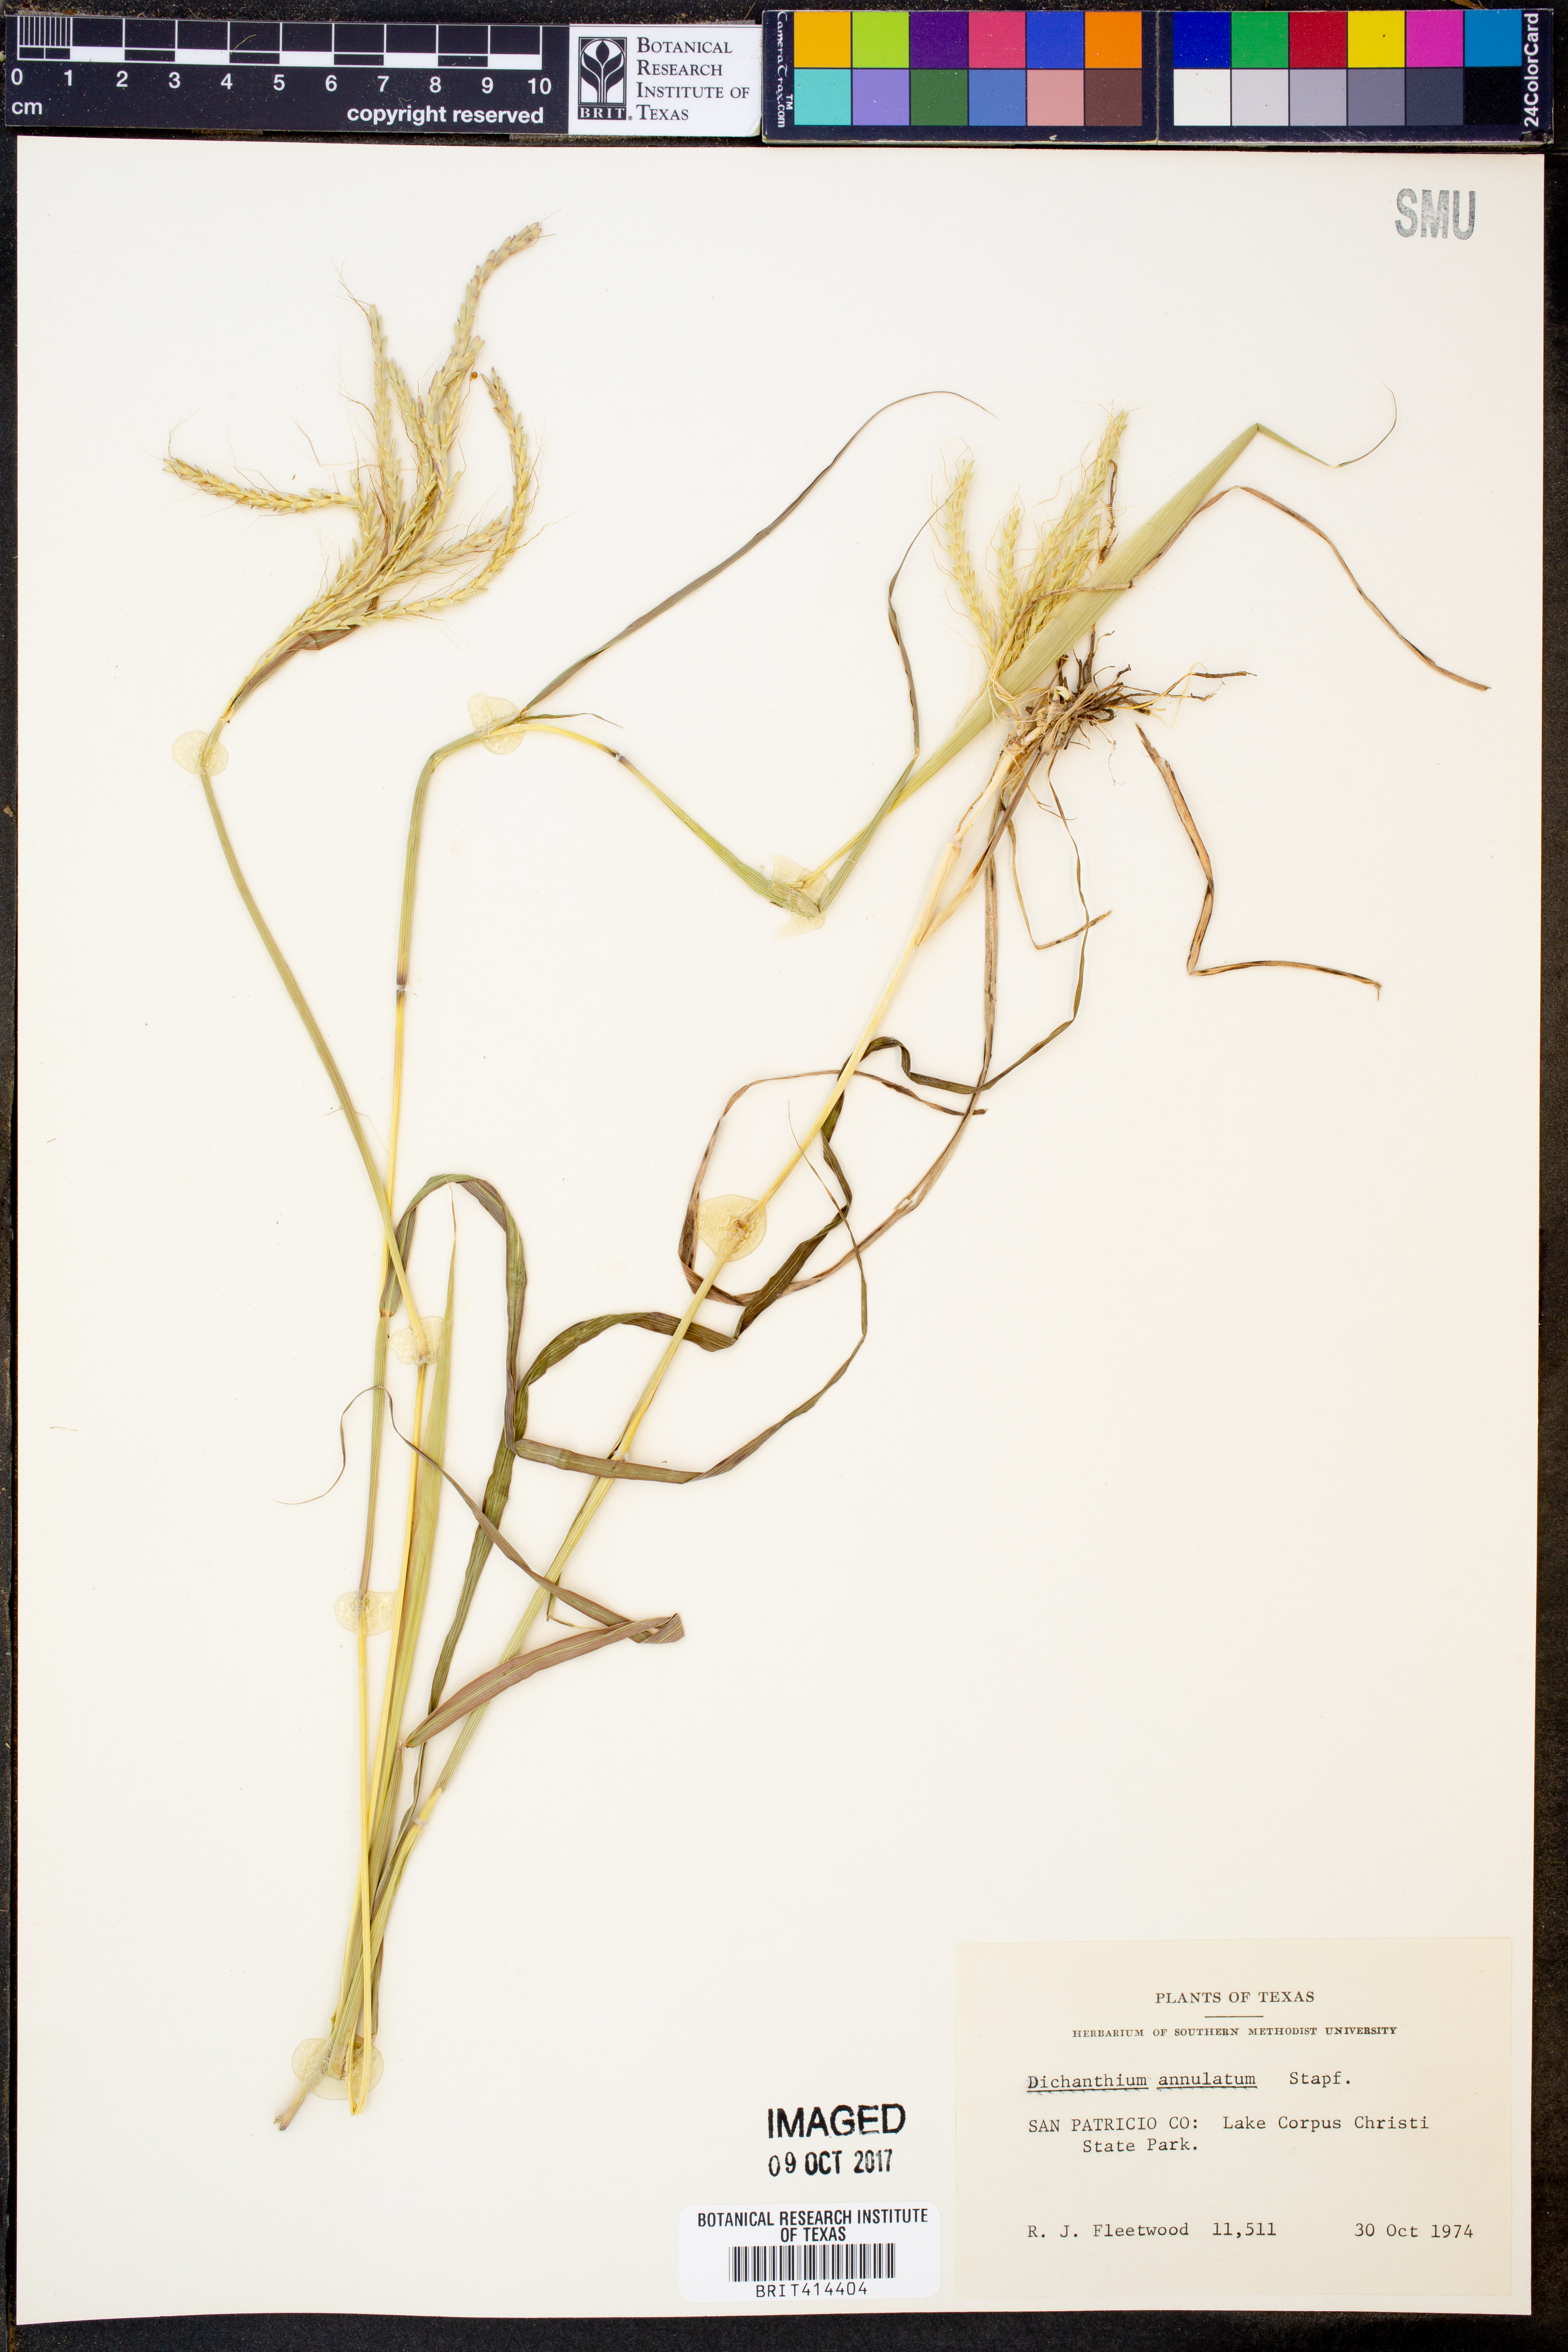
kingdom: Plantae
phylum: Tracheophyta
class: Liliopsida
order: Poales
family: Poaceae
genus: Dichanthium
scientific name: Dichanthium annulatum
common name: Kleberg's bluestem
